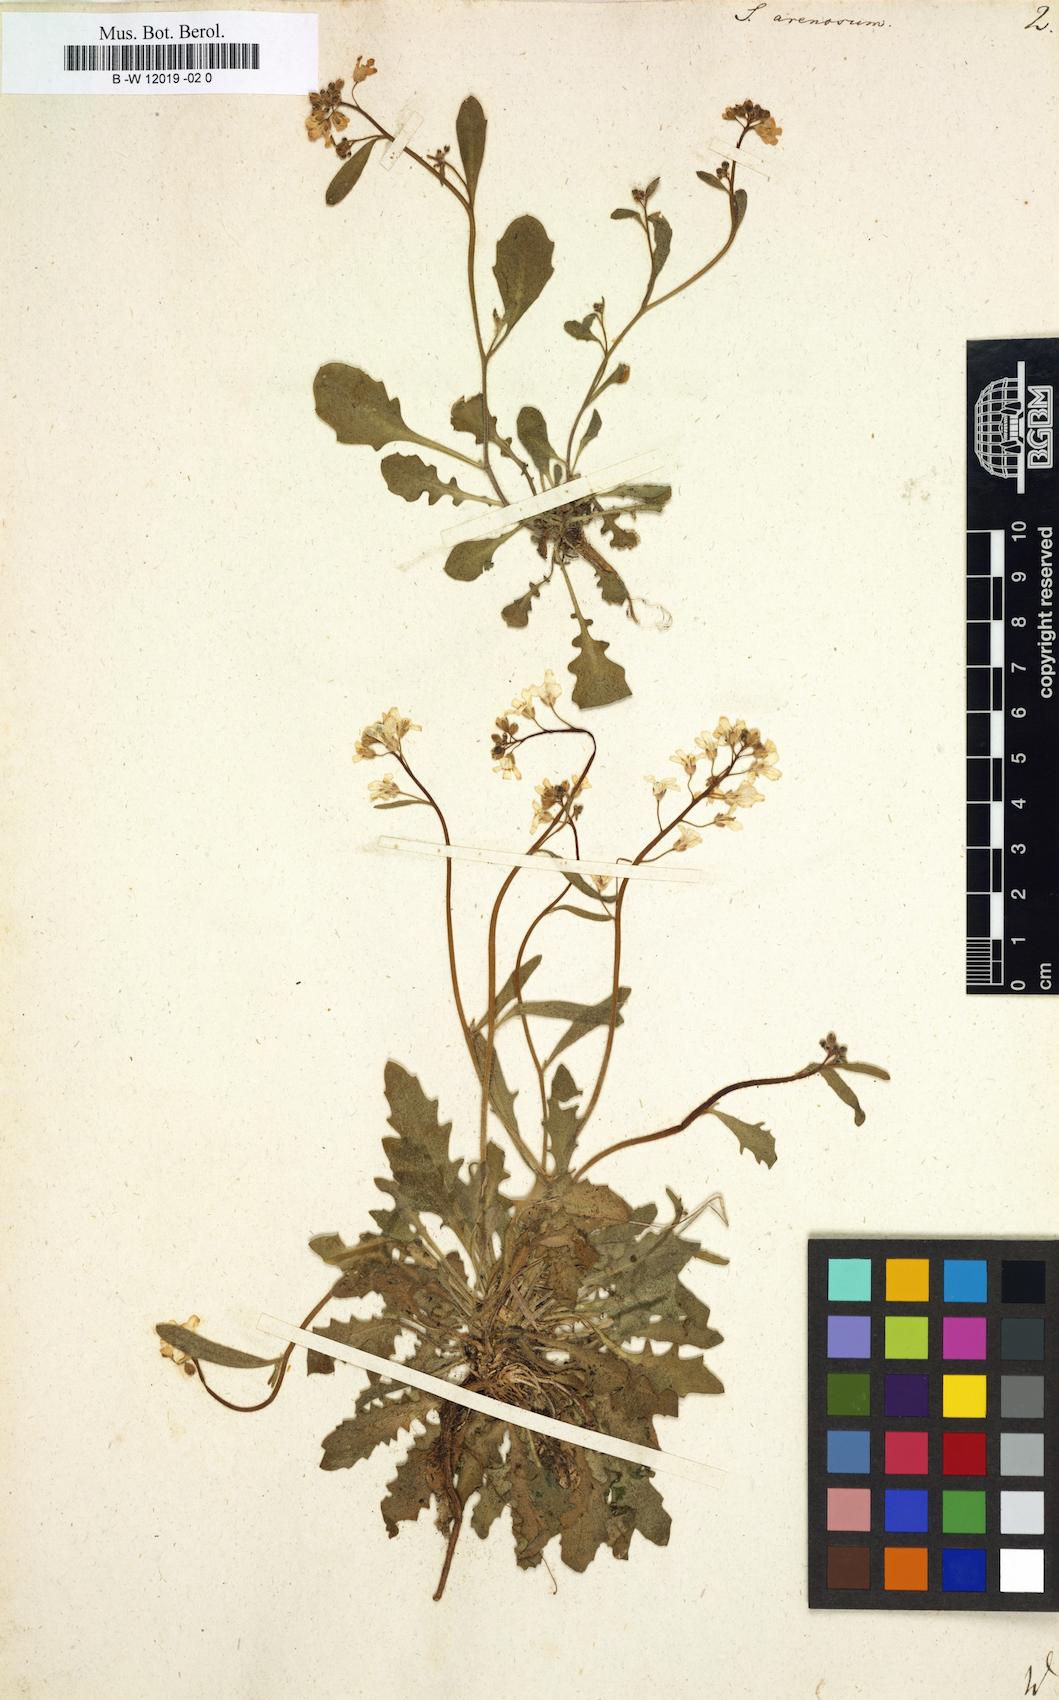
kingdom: Plantae
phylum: Tracheophyta
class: Magnoliopsida
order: Brassicales
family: Brassicaceae
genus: Arabidopsis
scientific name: Arabidopsis
